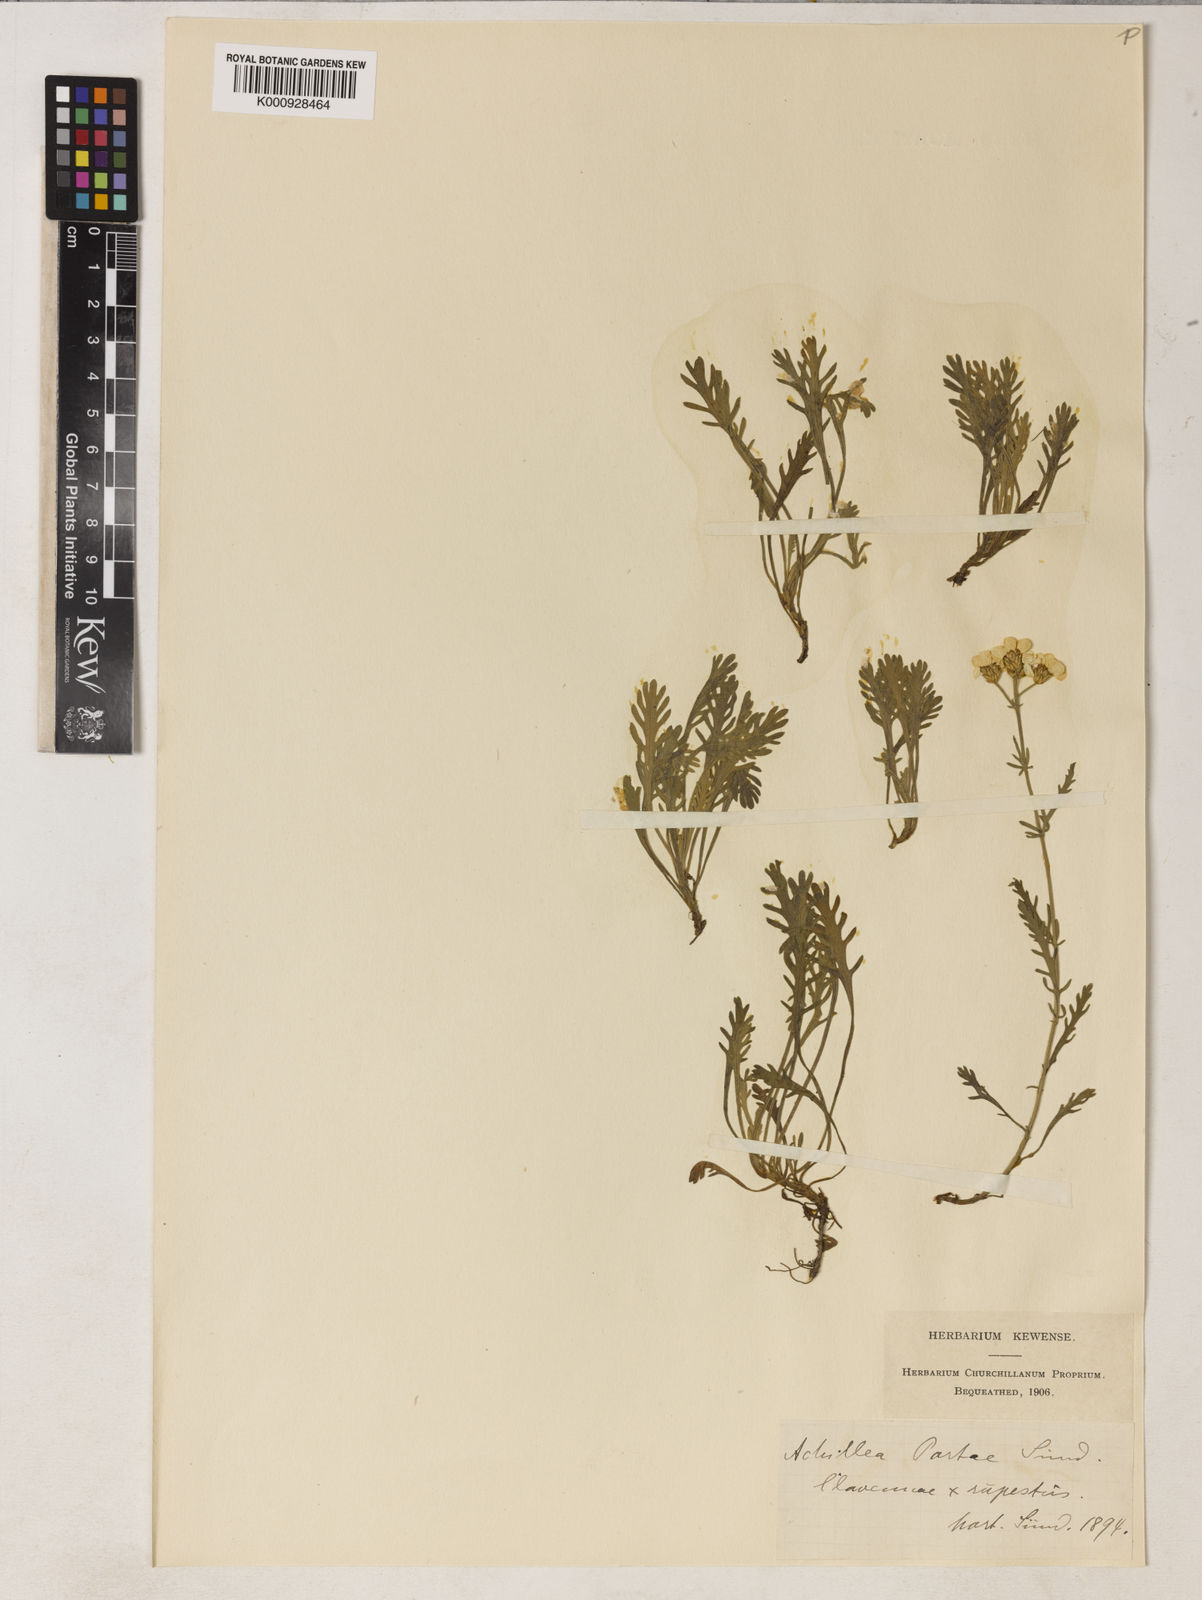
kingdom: Plantae
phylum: Tracheophyta
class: Magnoliopsida
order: Asterales
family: Asteraceae
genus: Achillea
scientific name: Achillea clavennae
